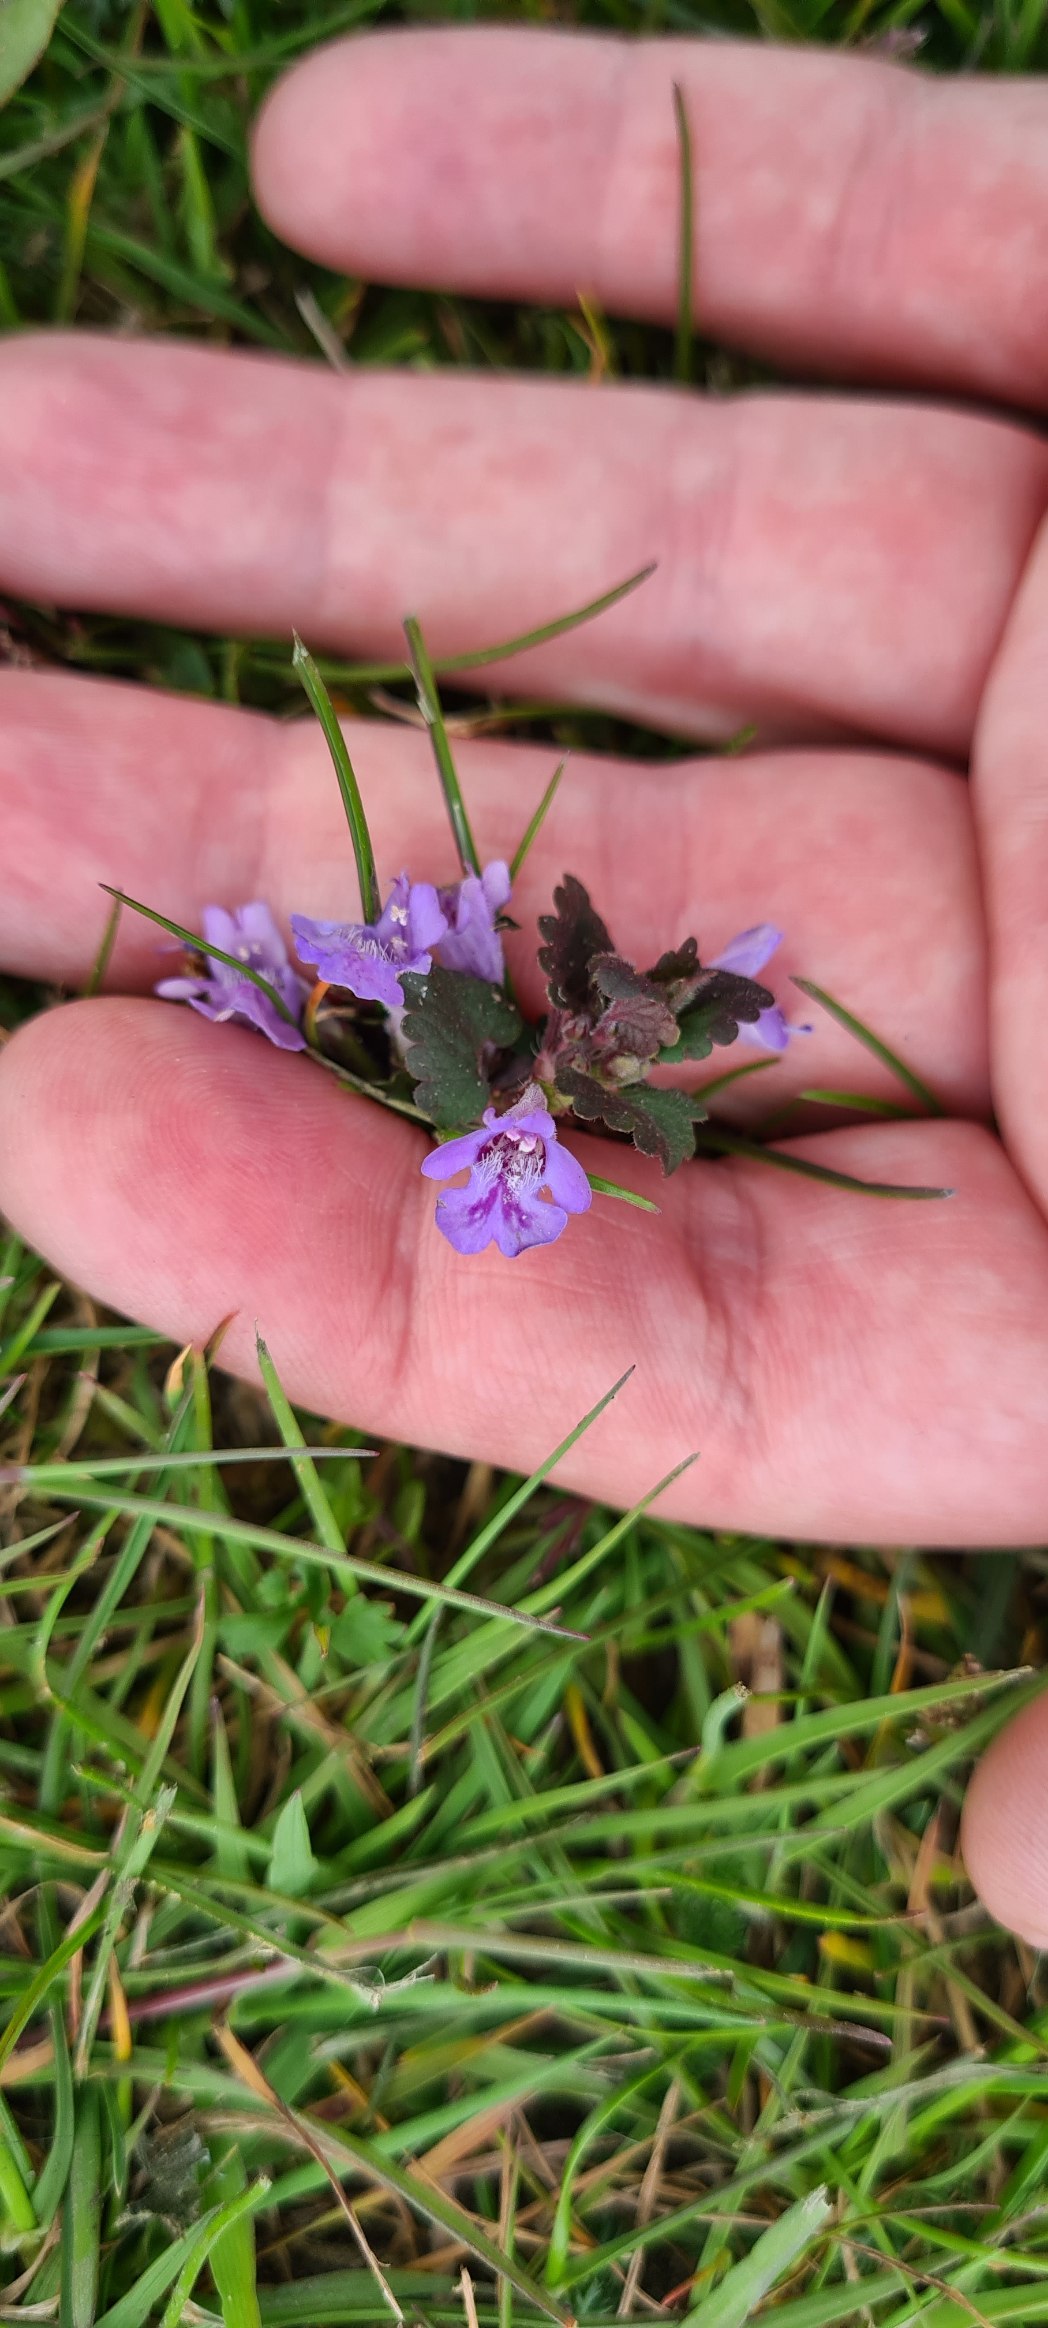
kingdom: Plantae
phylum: Tracheophyta
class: Magnoliopsida
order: Lamiales
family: Lamiaceae
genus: Glechoma
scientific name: Glechoma hederacea
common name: Korsknap
